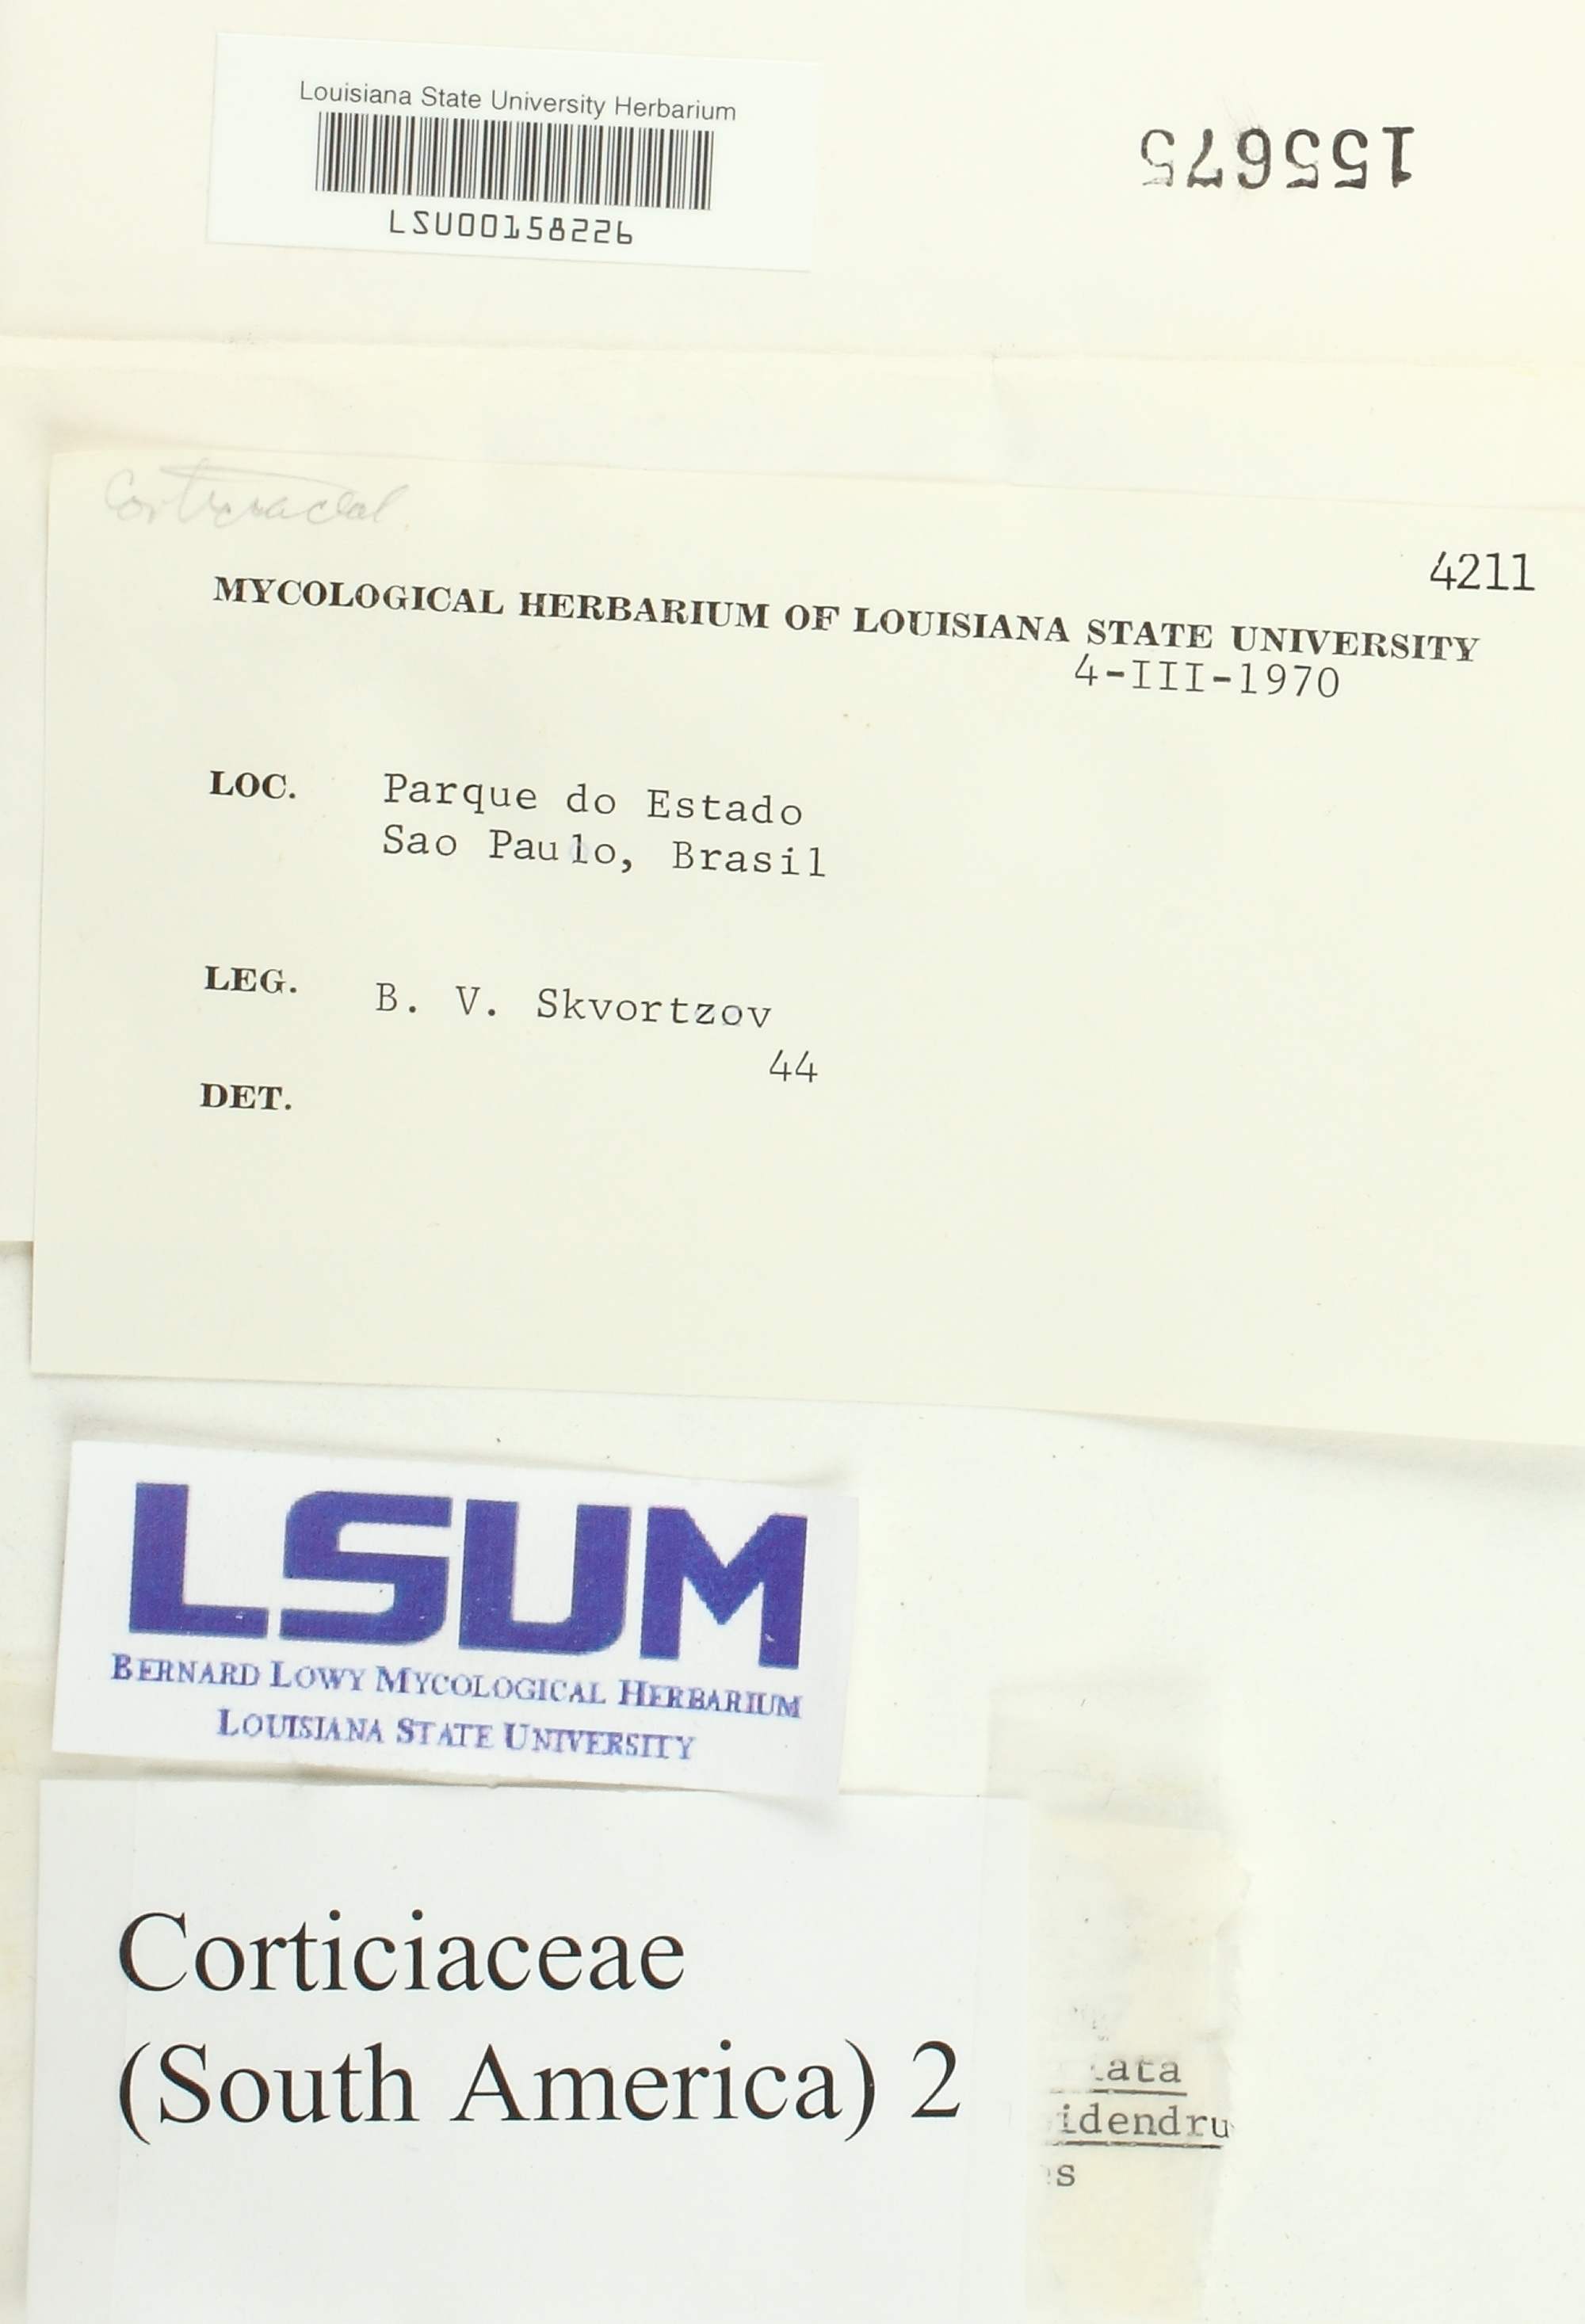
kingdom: Fungi
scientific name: Fungi
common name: Fungi
